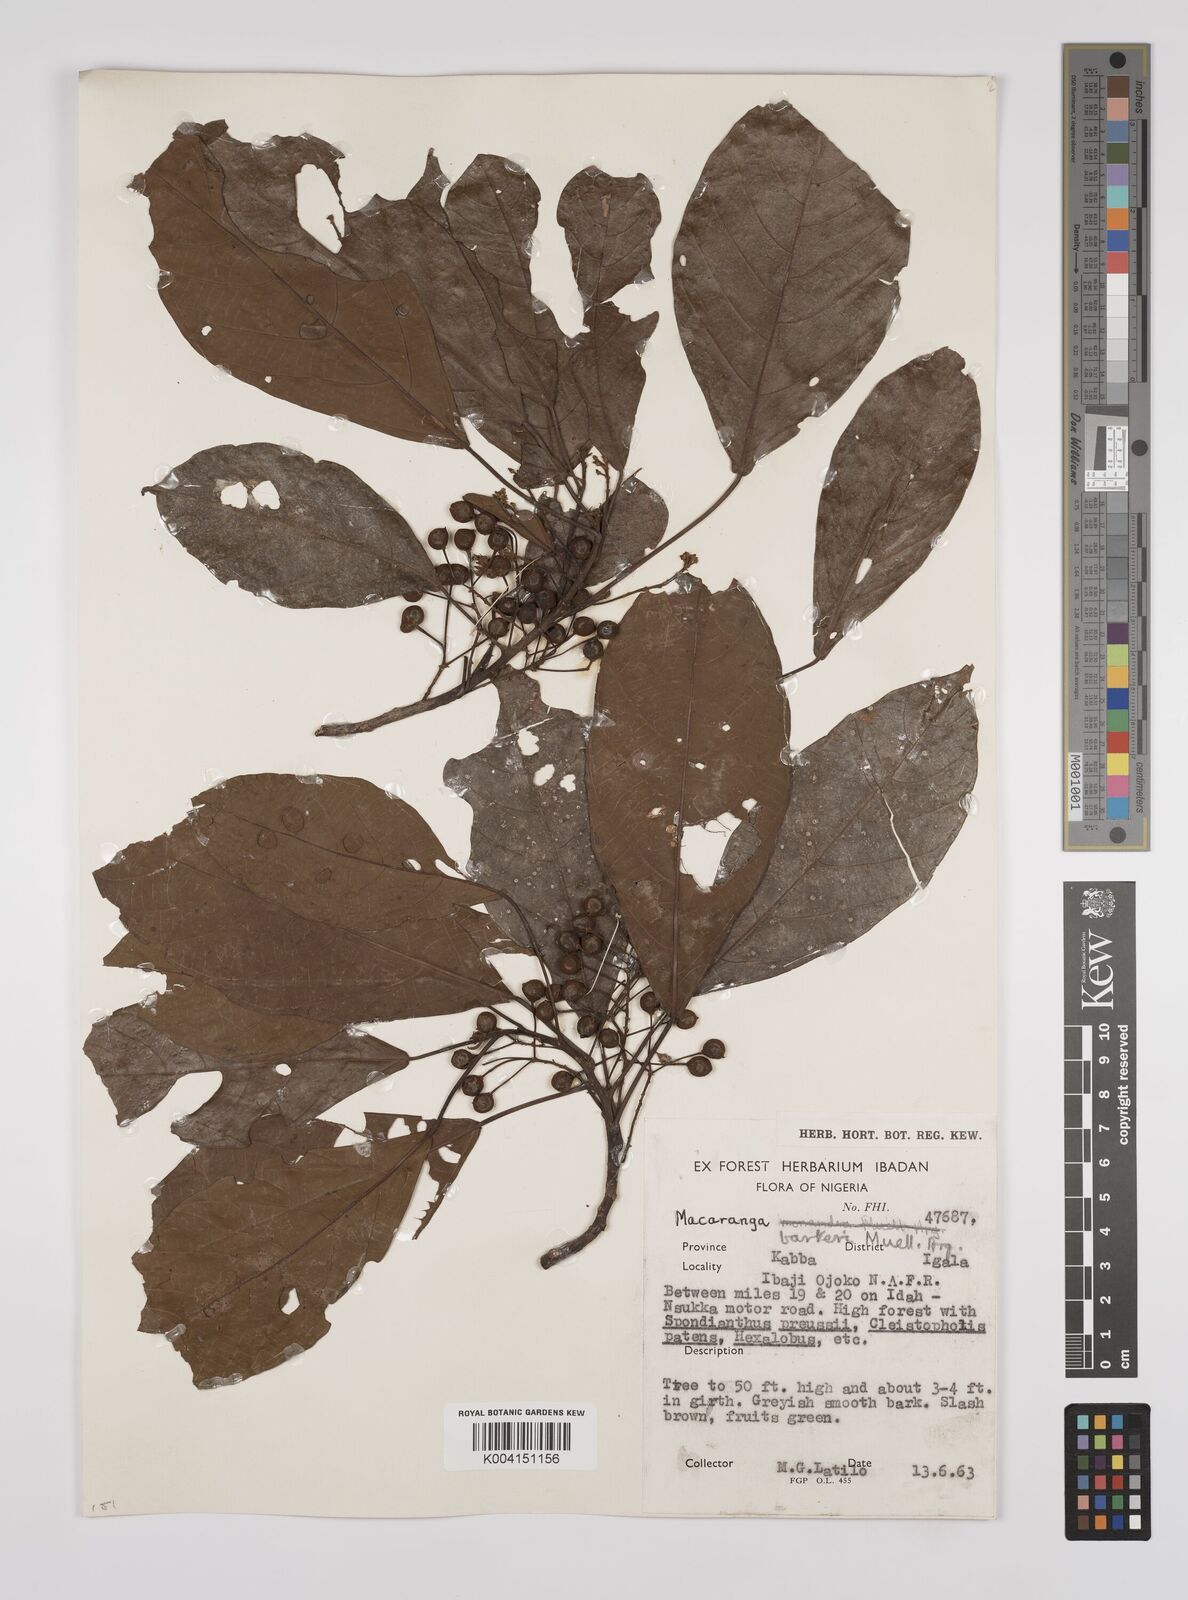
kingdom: Plantae
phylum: Tracheophyta
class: Magnoliopsida
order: Malpighiales
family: Euphorbiaceae
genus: Macaranga
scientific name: Macaranga barteri
